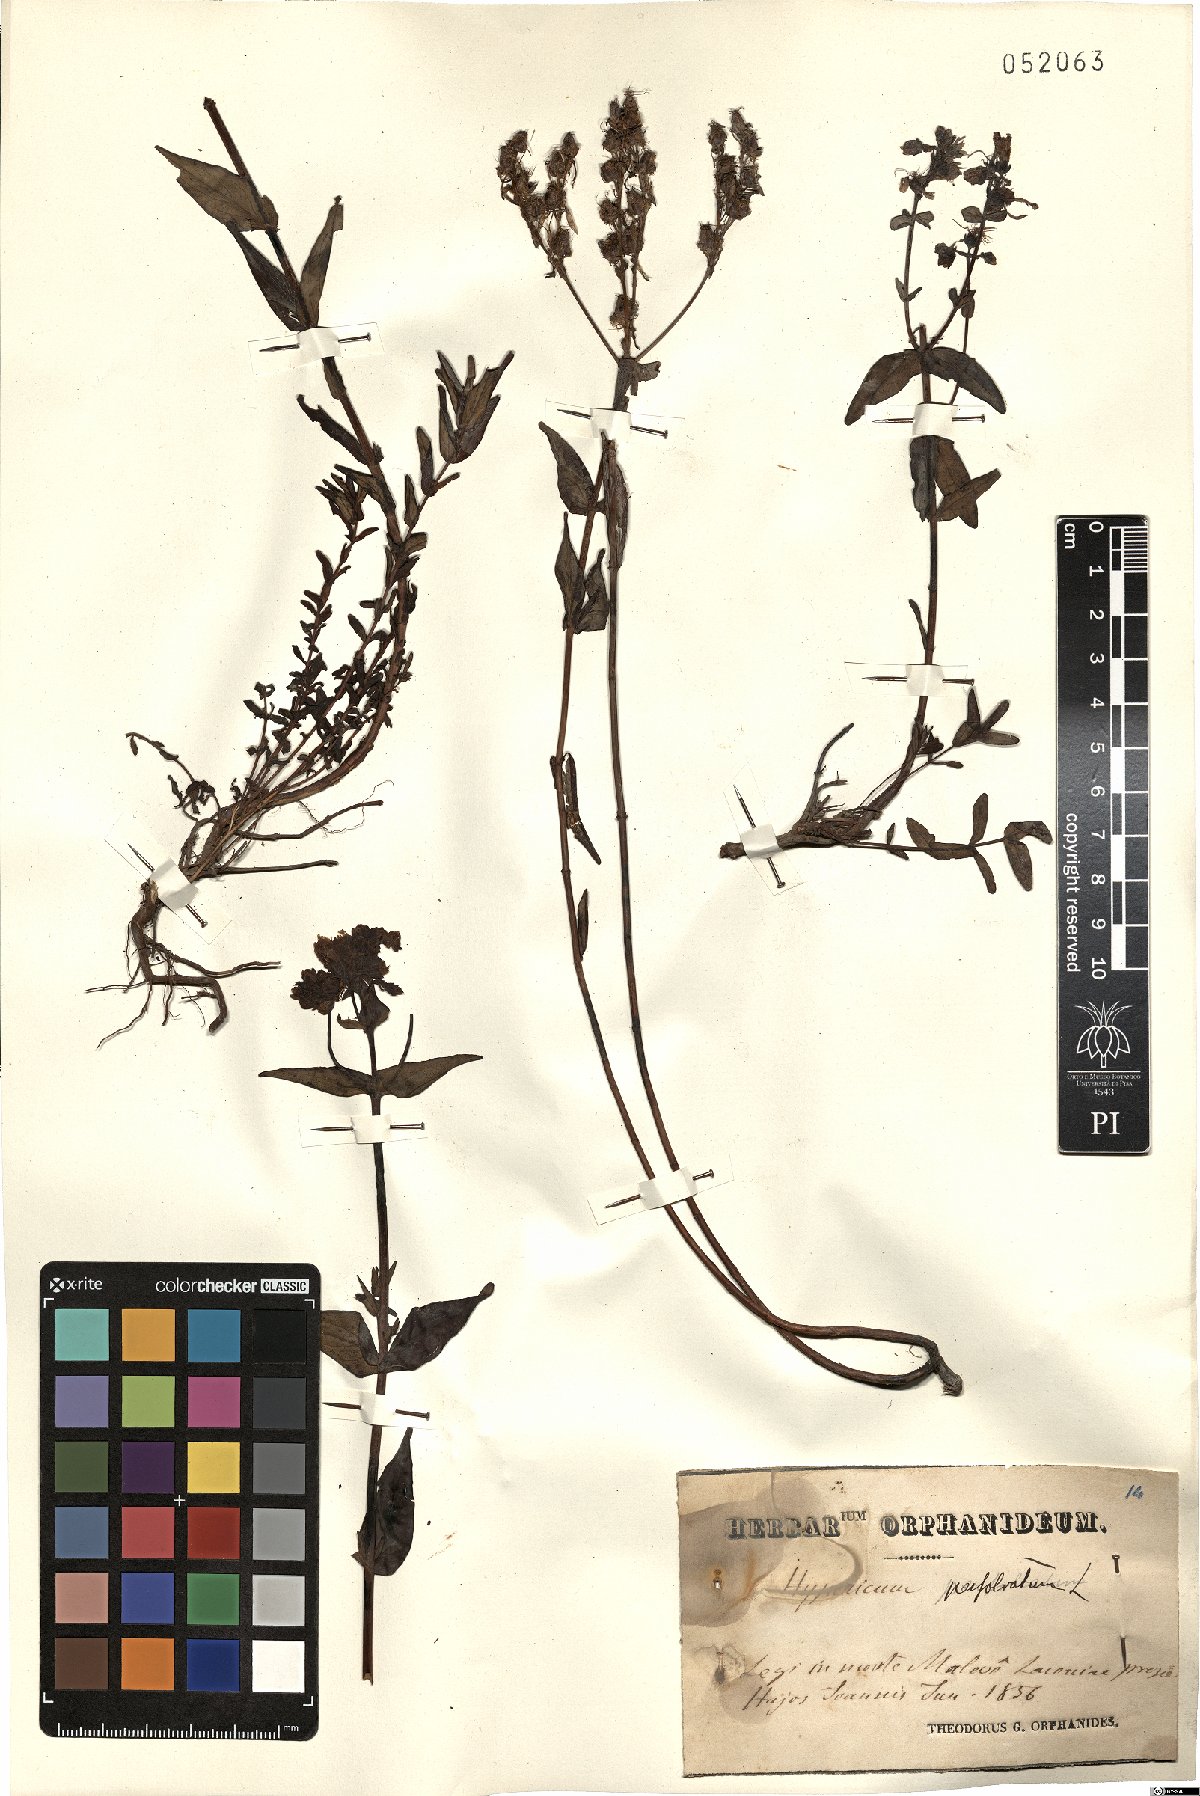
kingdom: Plantae
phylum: Tracheophyta
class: Magnoliopsida
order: Malpighiales
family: Hypericaceae
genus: Hypericum
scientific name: Hypericum perfoliatum
